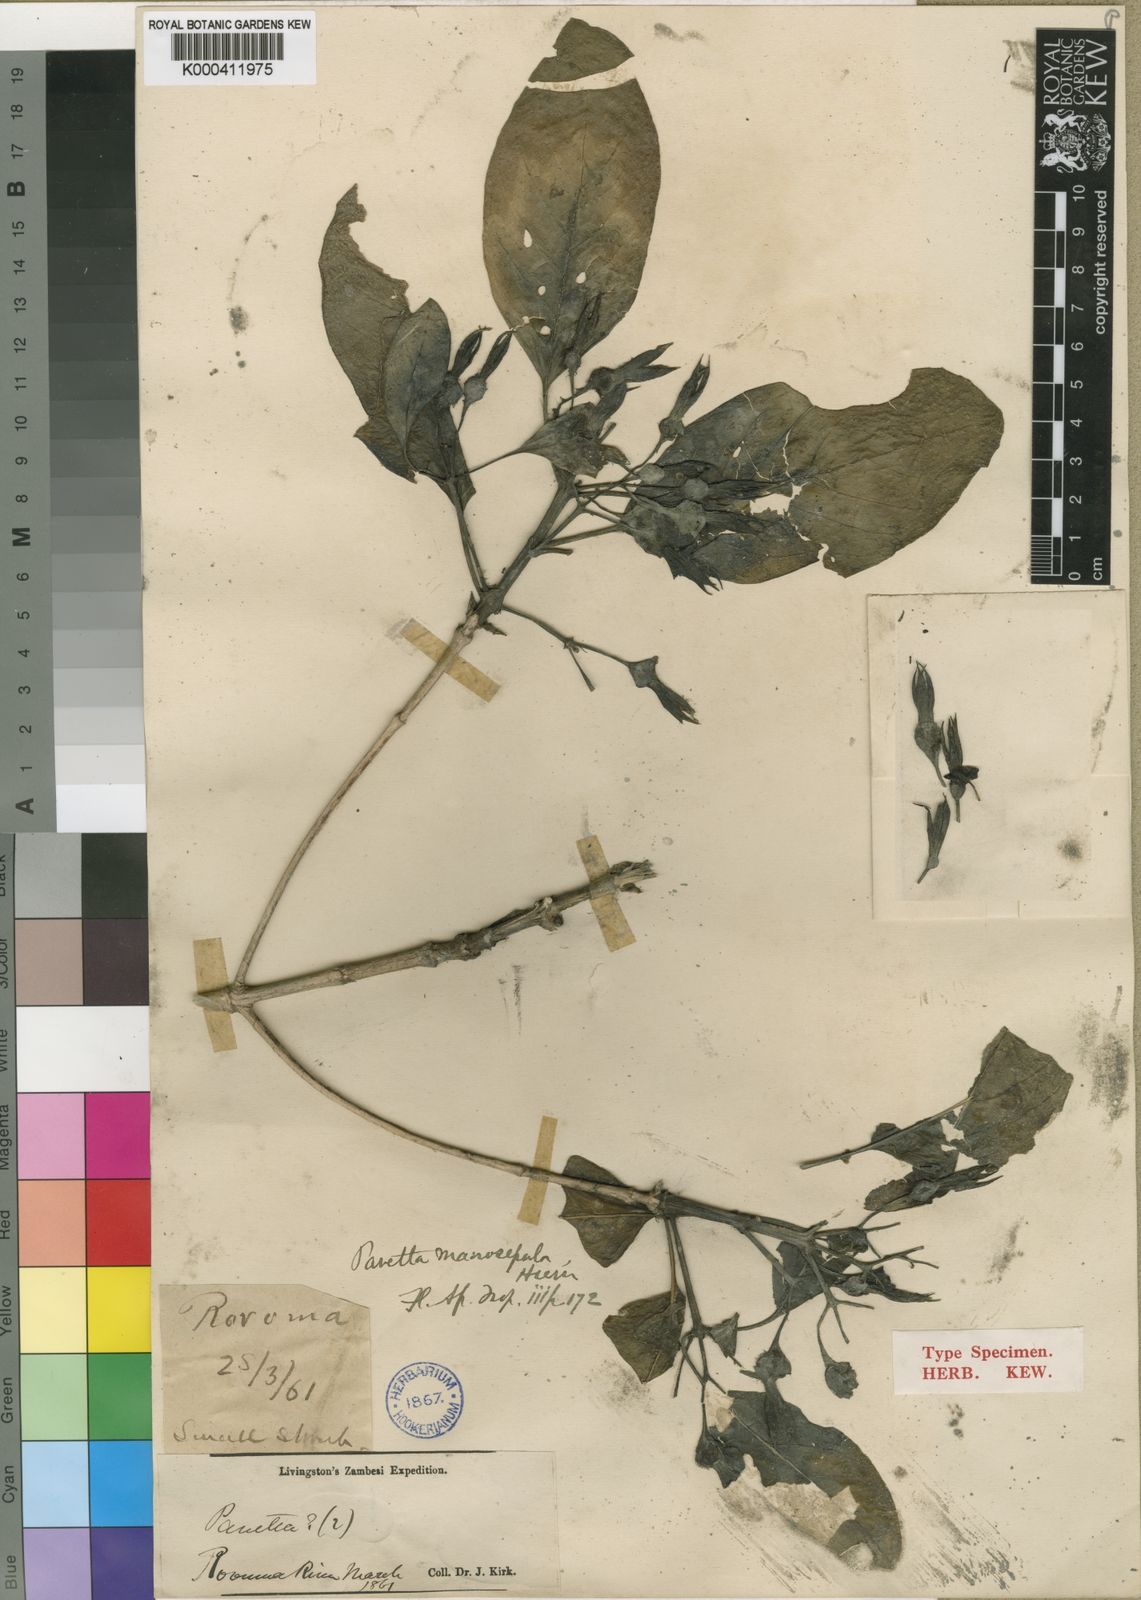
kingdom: Plantae
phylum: Tracheophyta
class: Magnoliopsida
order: Gentianales
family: Rubiaceae
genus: Pavetta
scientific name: Pavetta macrosepala
